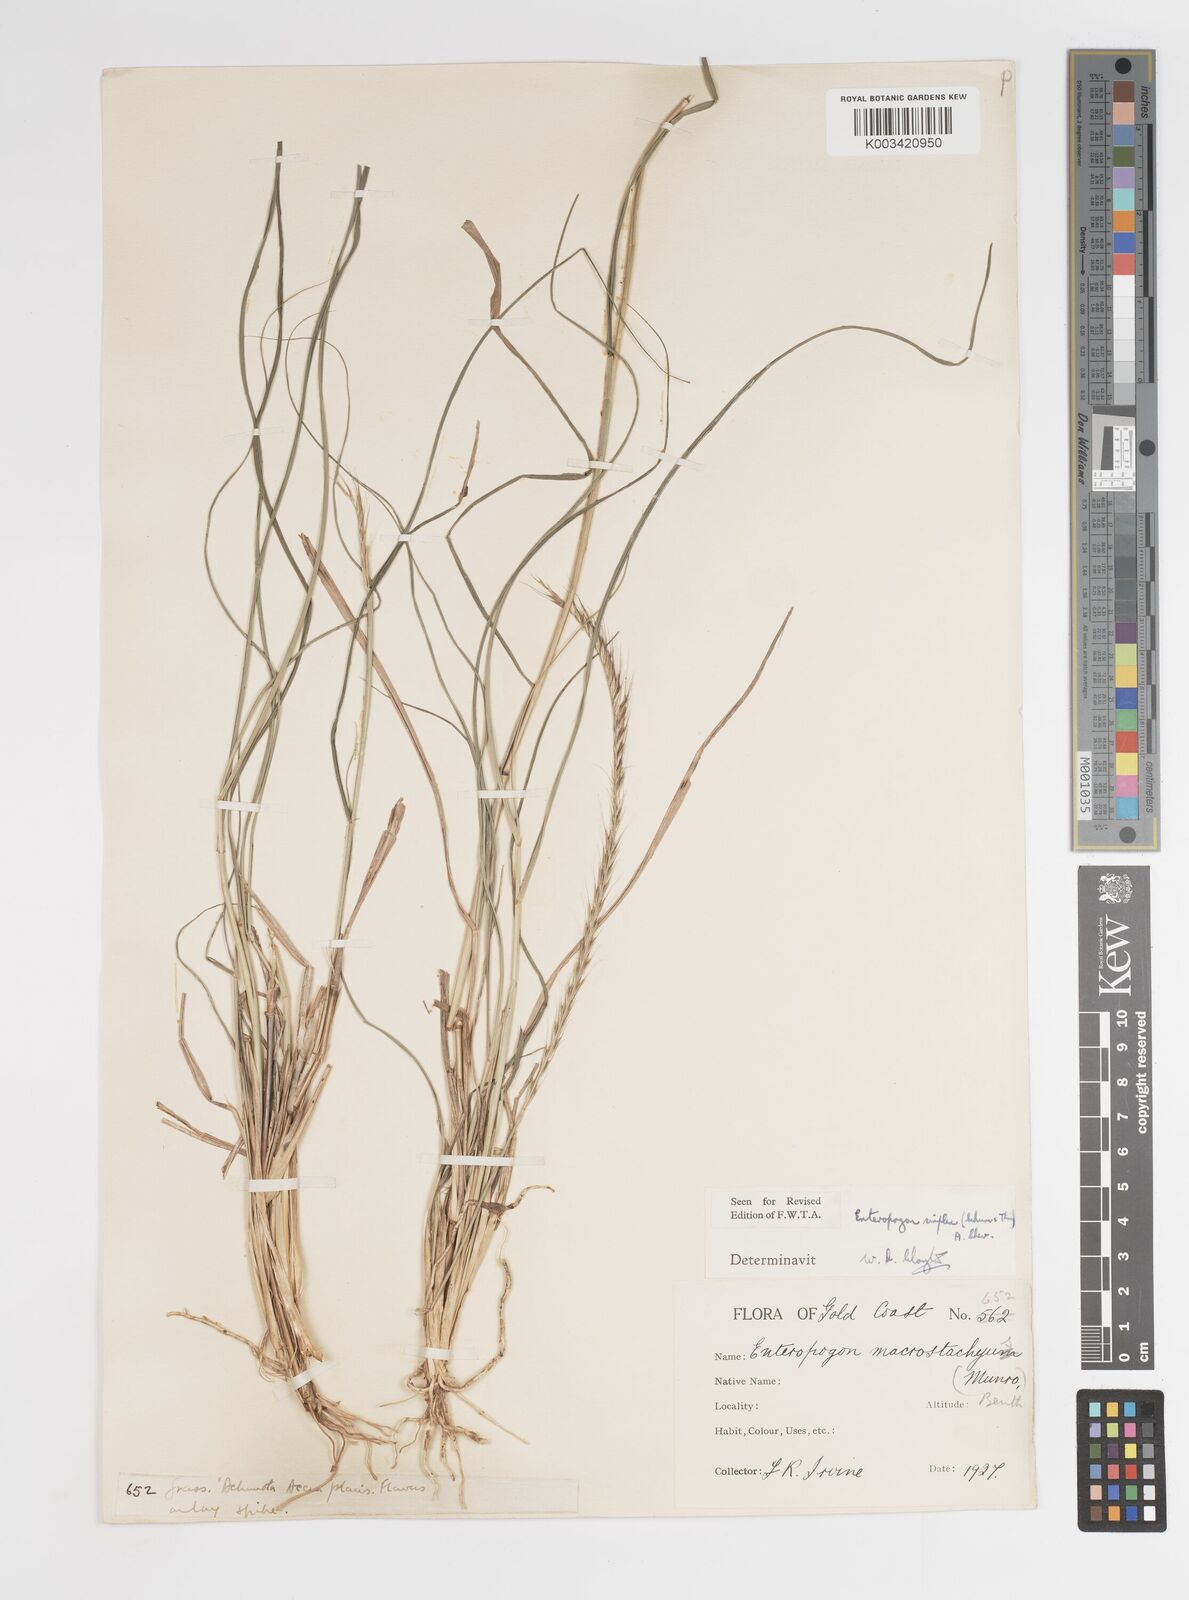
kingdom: Plantae
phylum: Tracheophyta
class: Liliopsida
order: Poales
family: Poaceae
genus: Enteropogon
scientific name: Enteropogon macrostachyus
